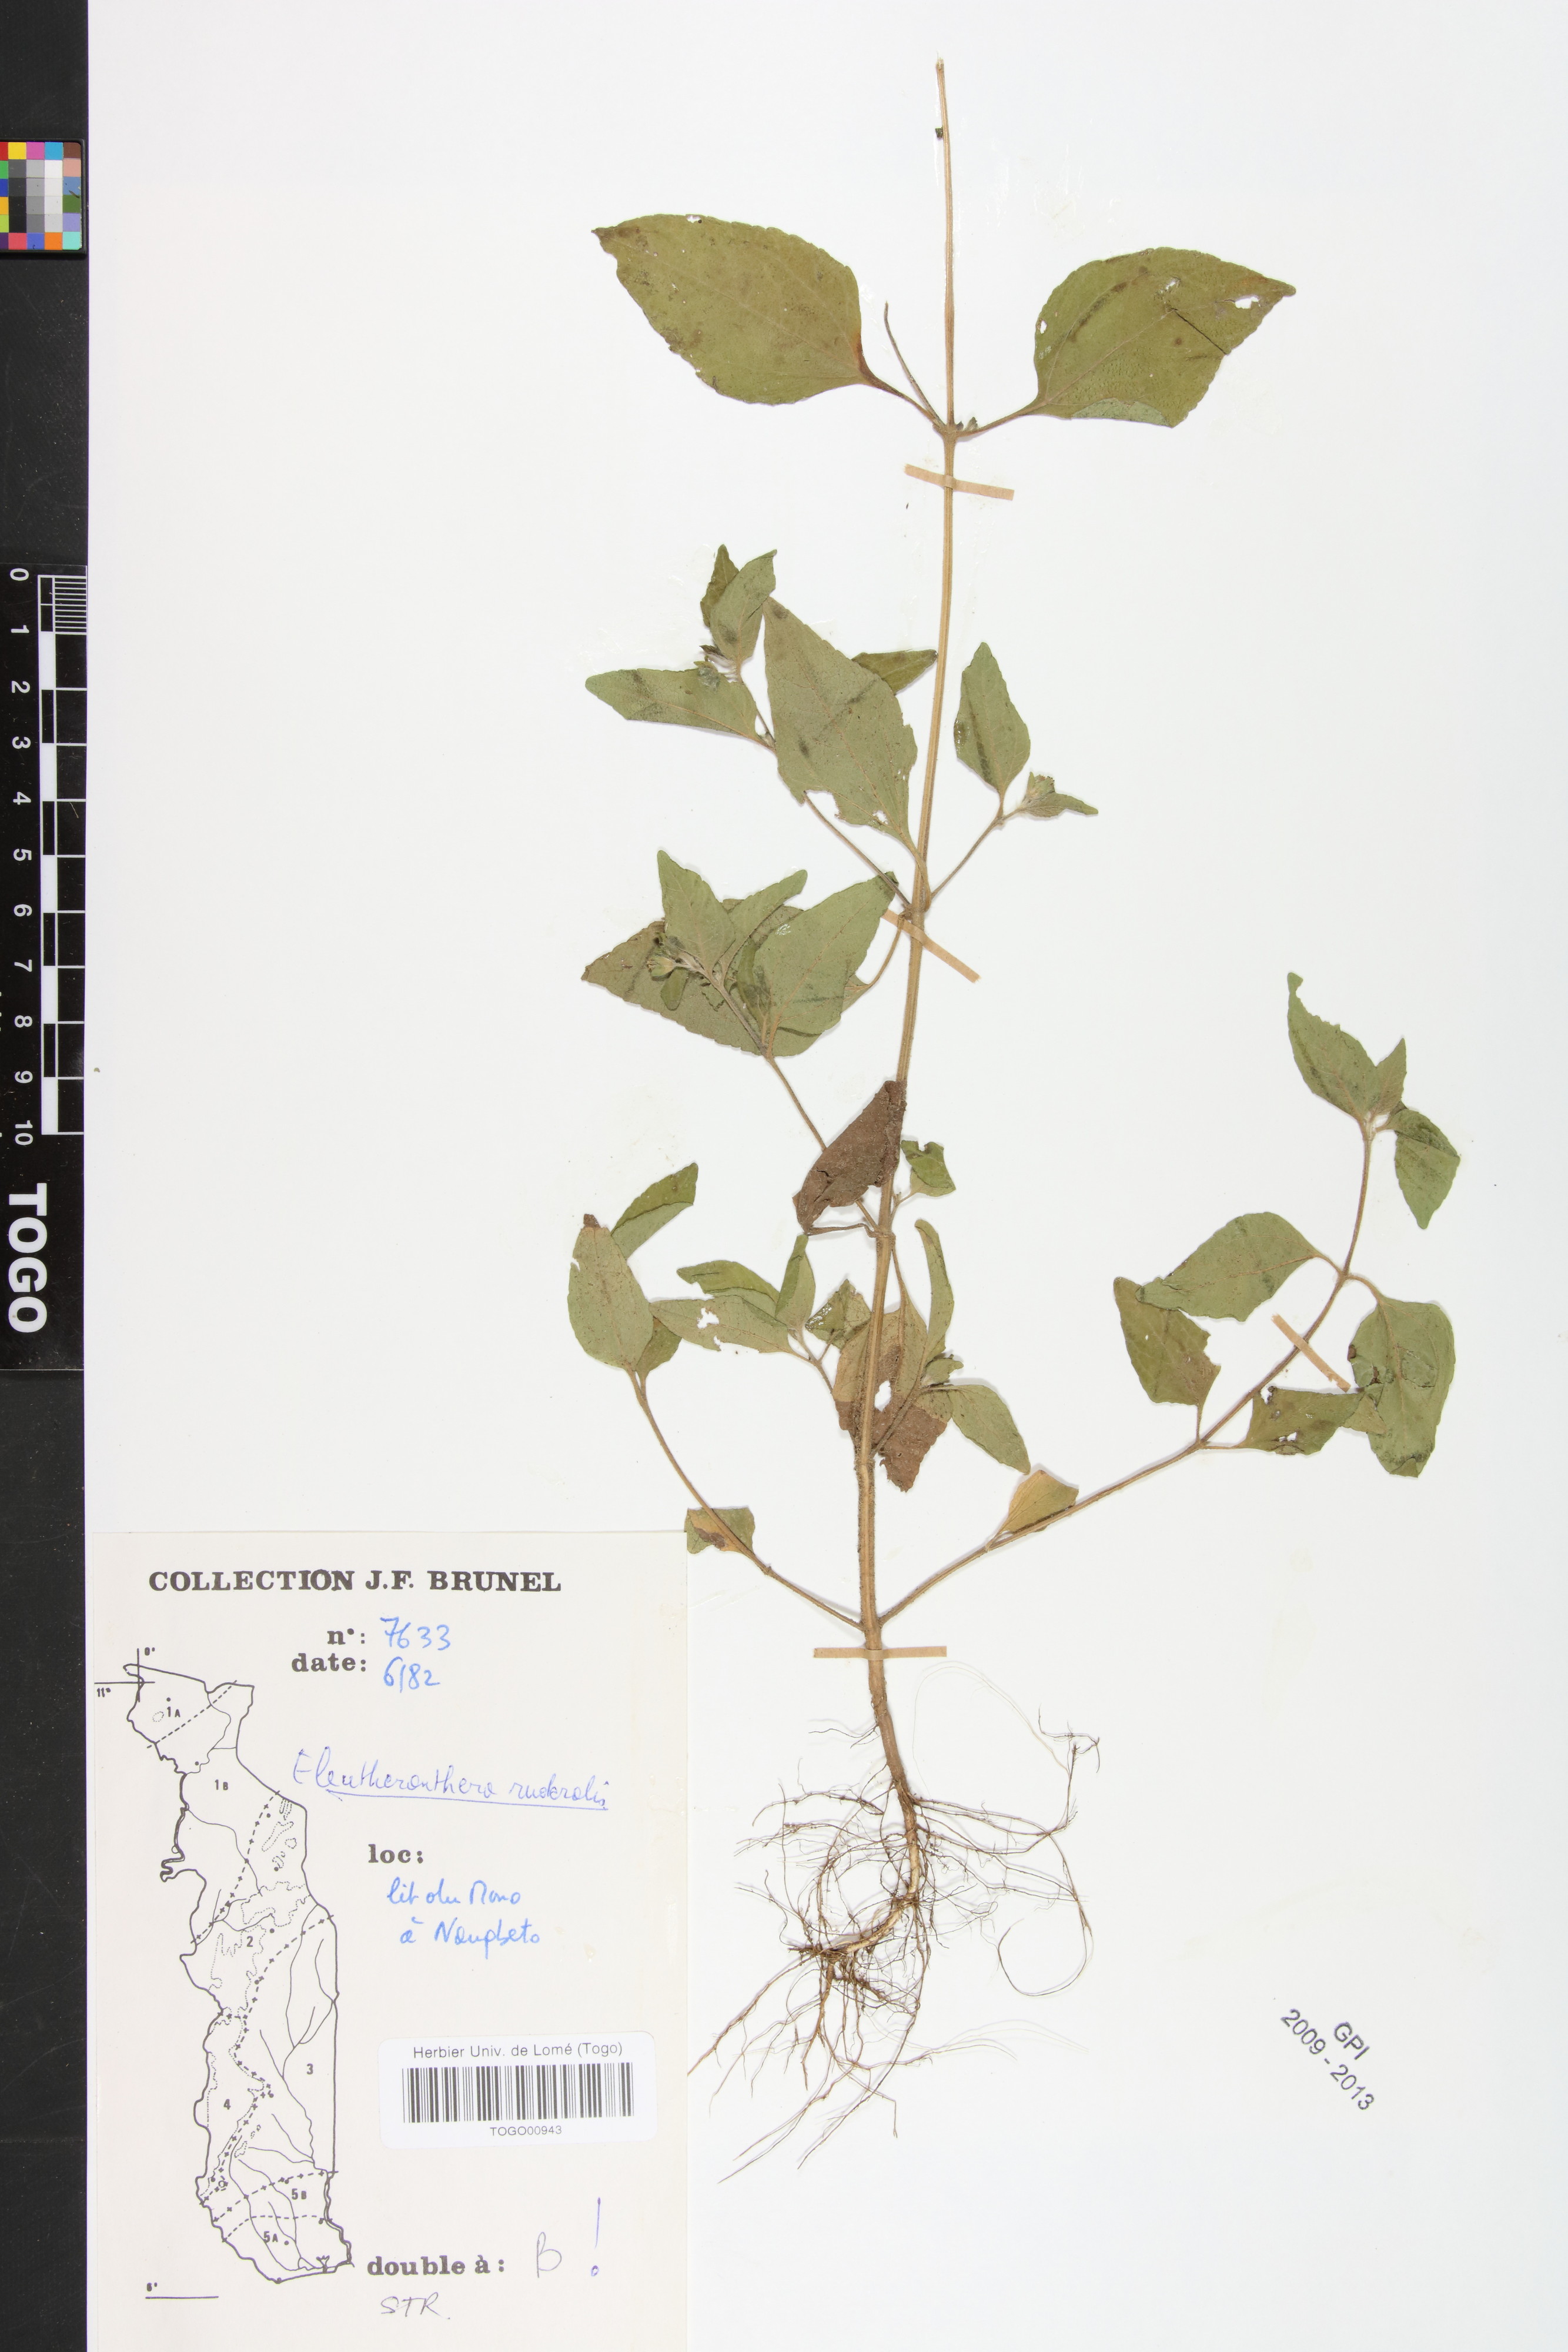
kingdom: Plantae
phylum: Tracheophyta
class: Magnoliopsida
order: Asterales
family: Asteraceae
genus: Eleutheranthera
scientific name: Eleutheranthera ruderalis
